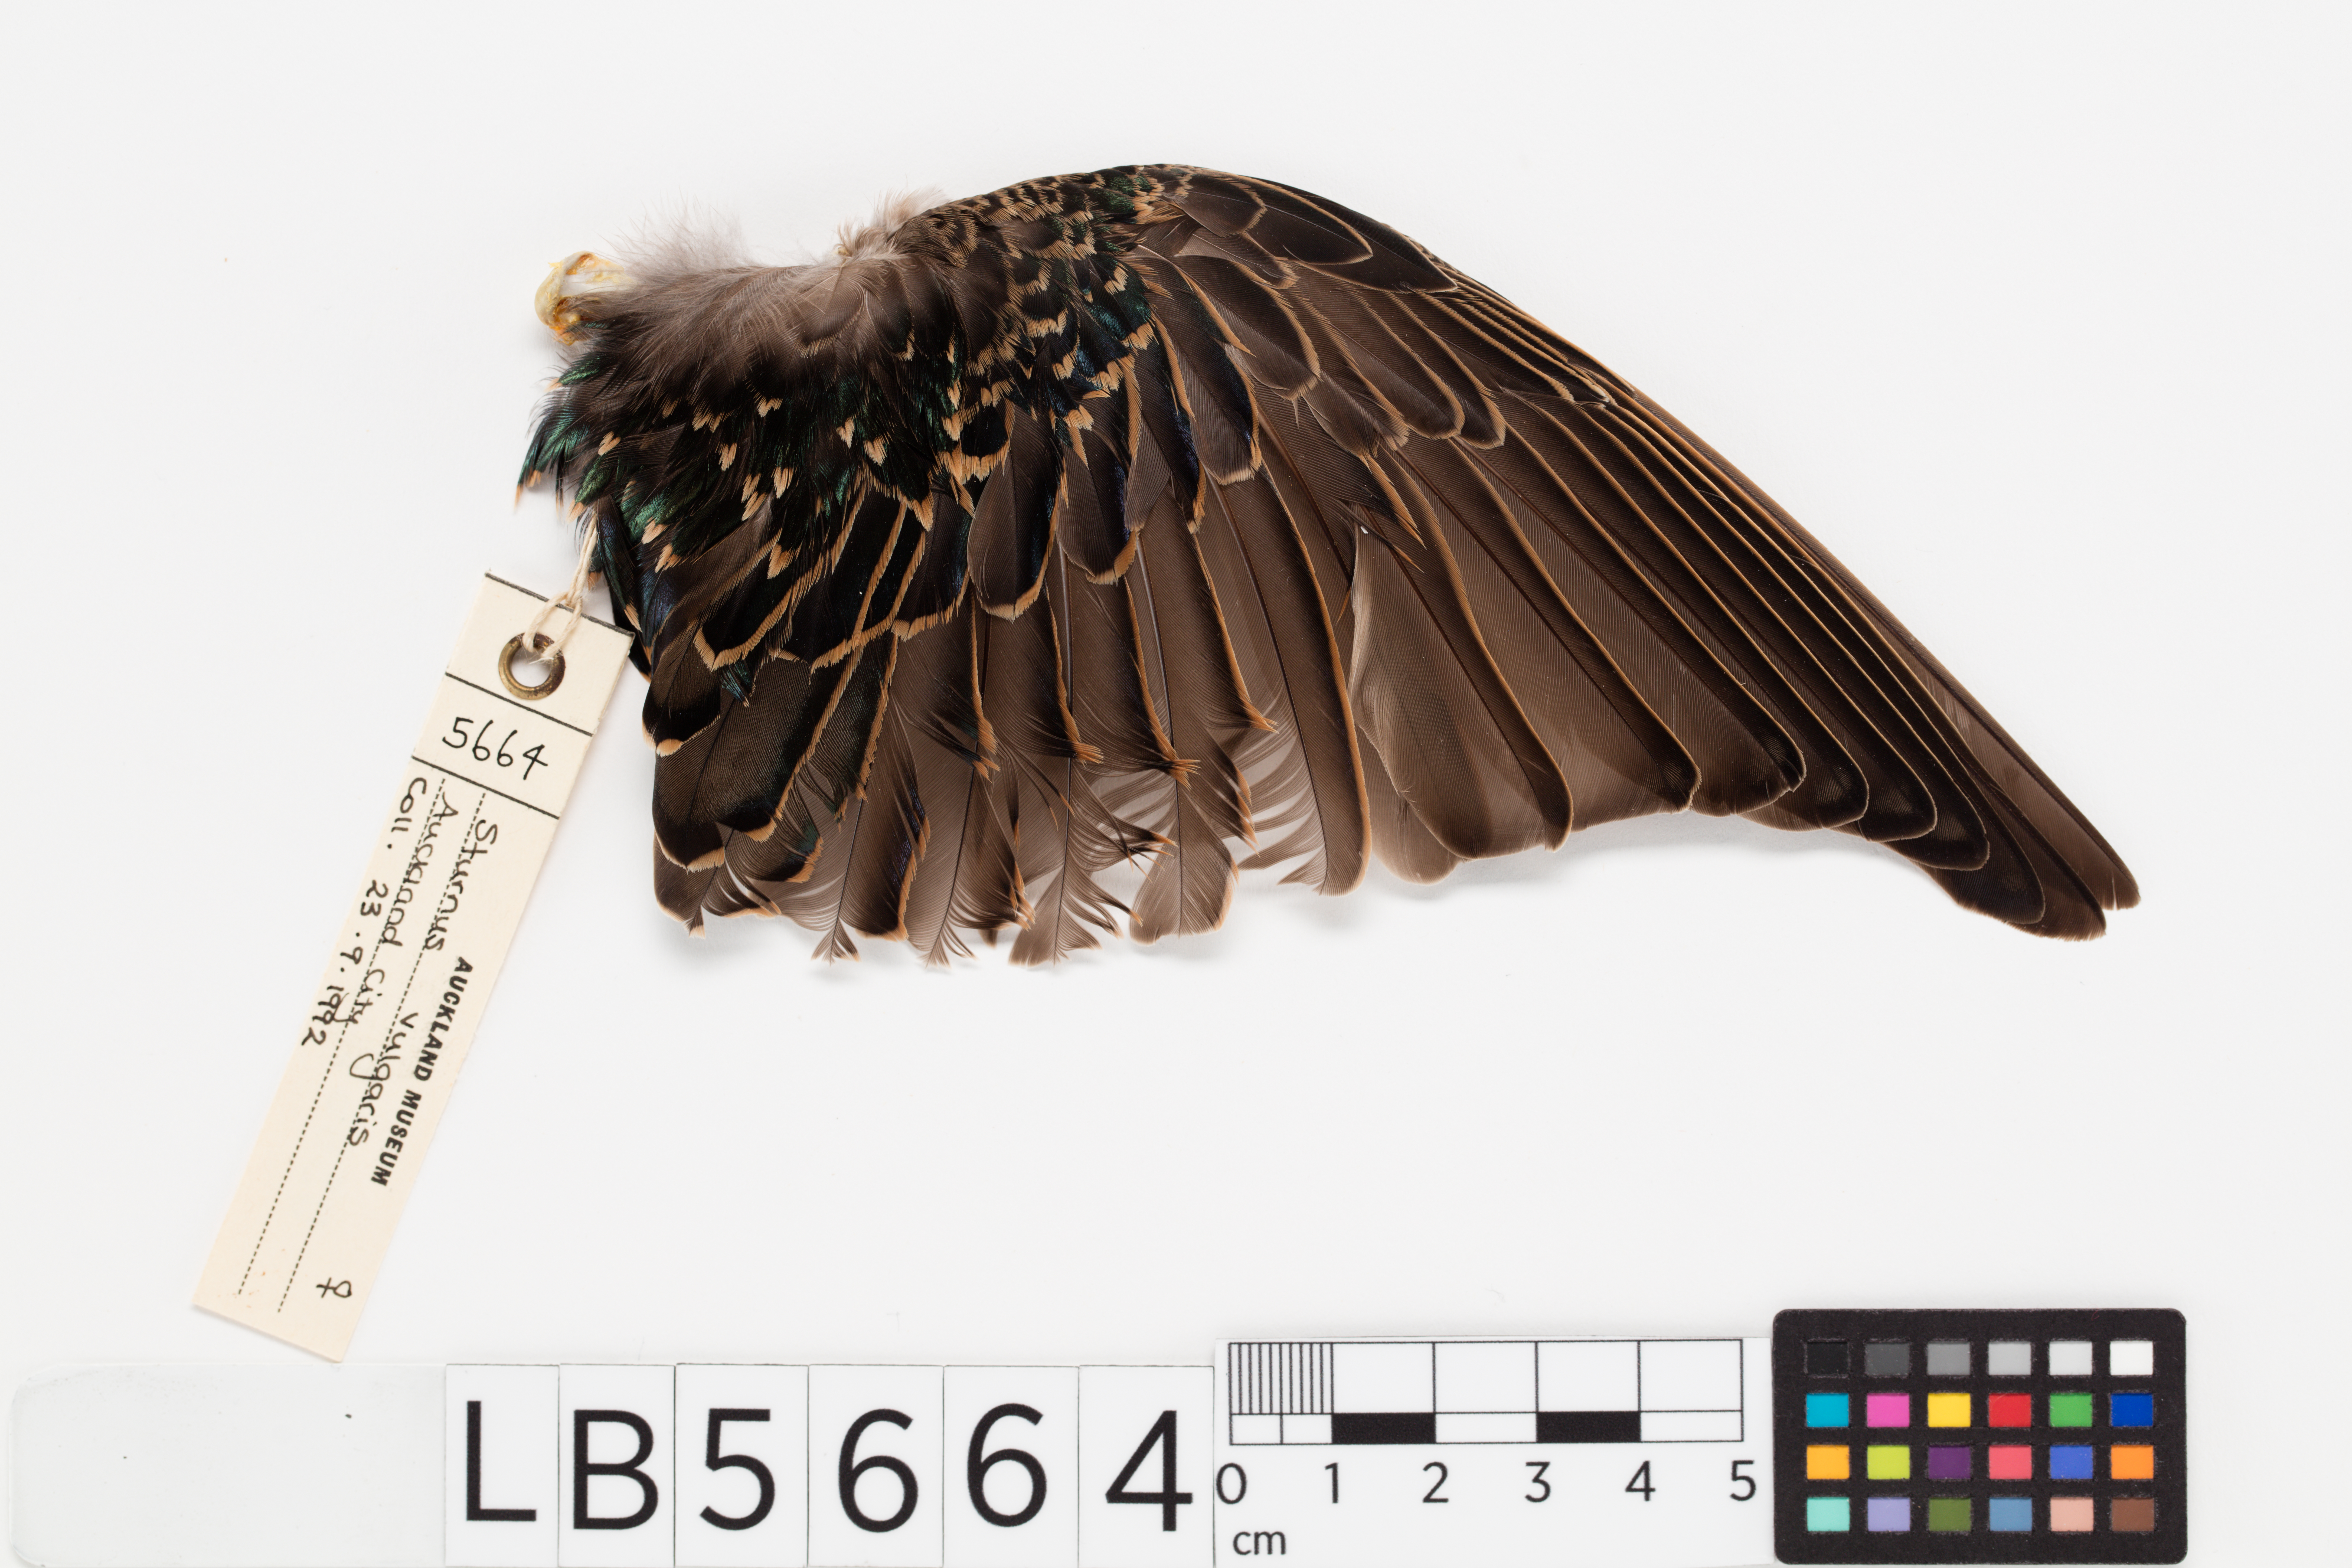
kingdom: Animalia
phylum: Chordata
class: Aves
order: Passeriformes
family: Sturnidae
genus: Sturnus
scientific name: Sturnus vulgaris
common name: Common starling
